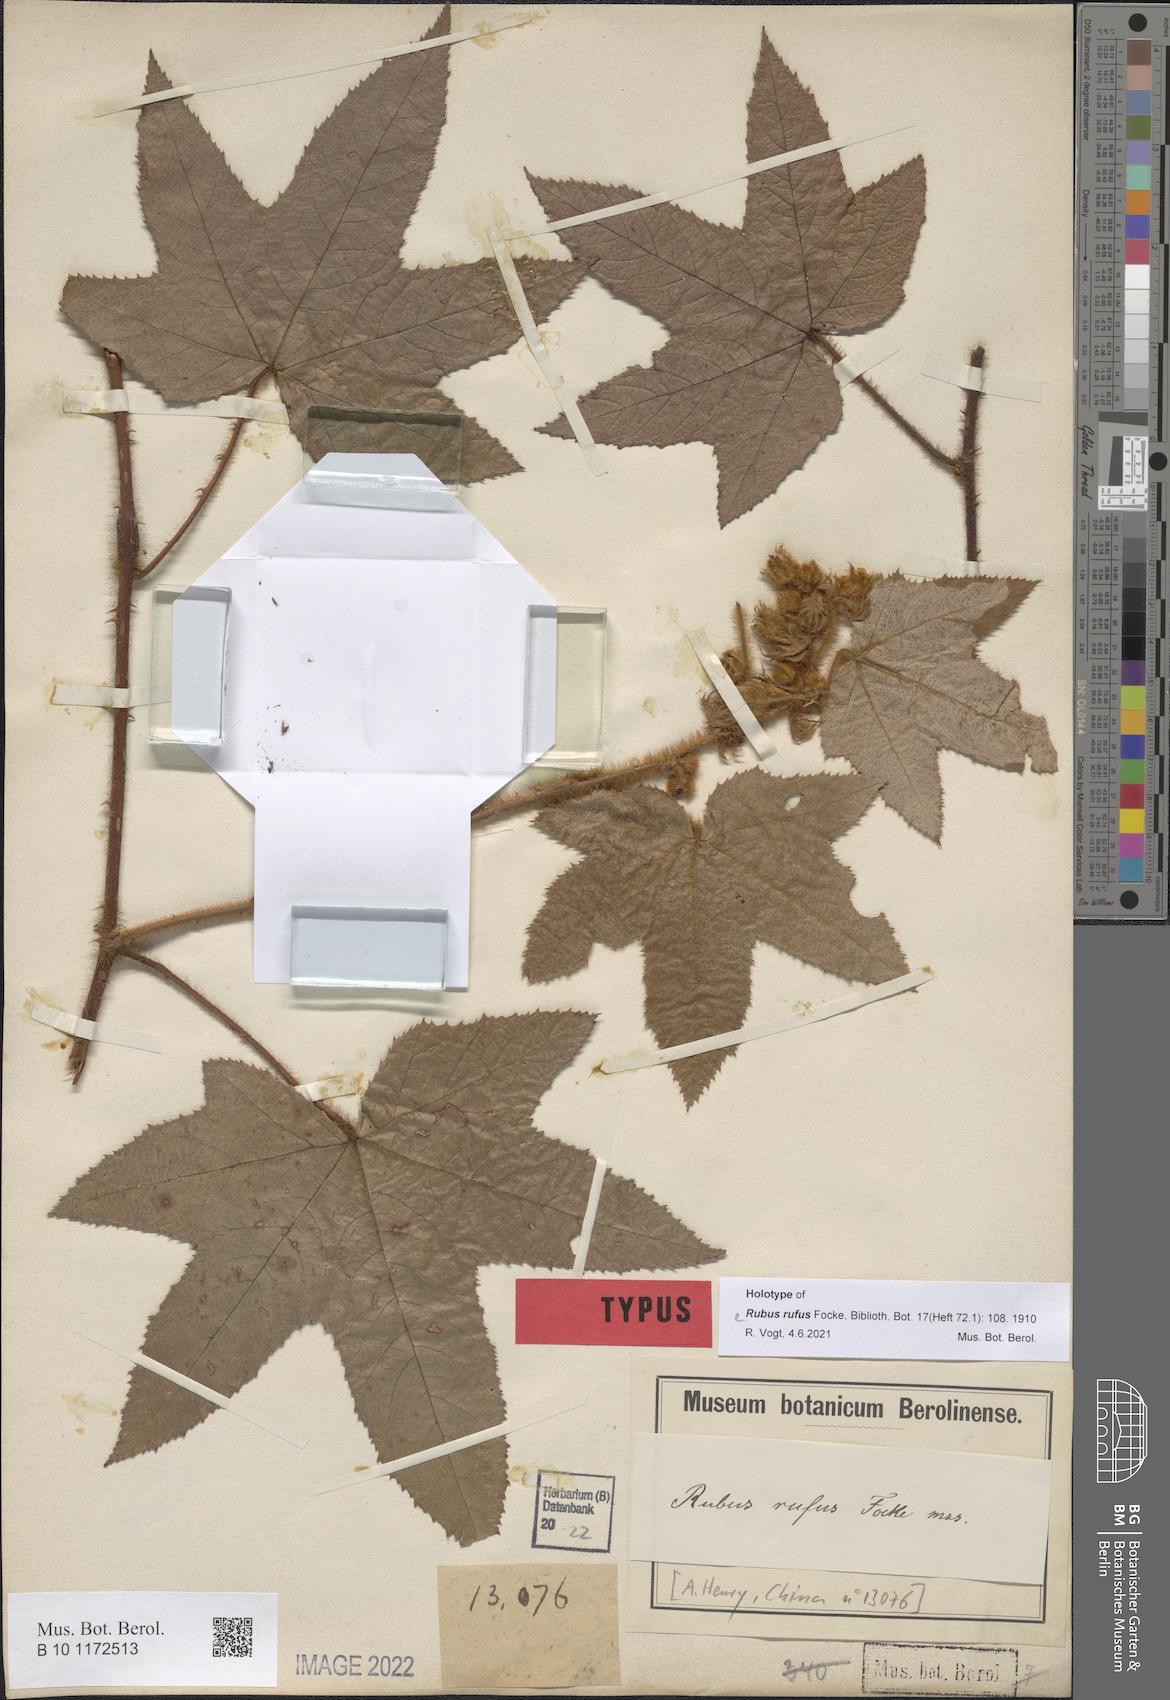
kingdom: Plantae
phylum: Tracheophyta
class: Magnoliopsida
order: Rosales
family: Rosaceae
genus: Rubus
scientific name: Rubus rufus
